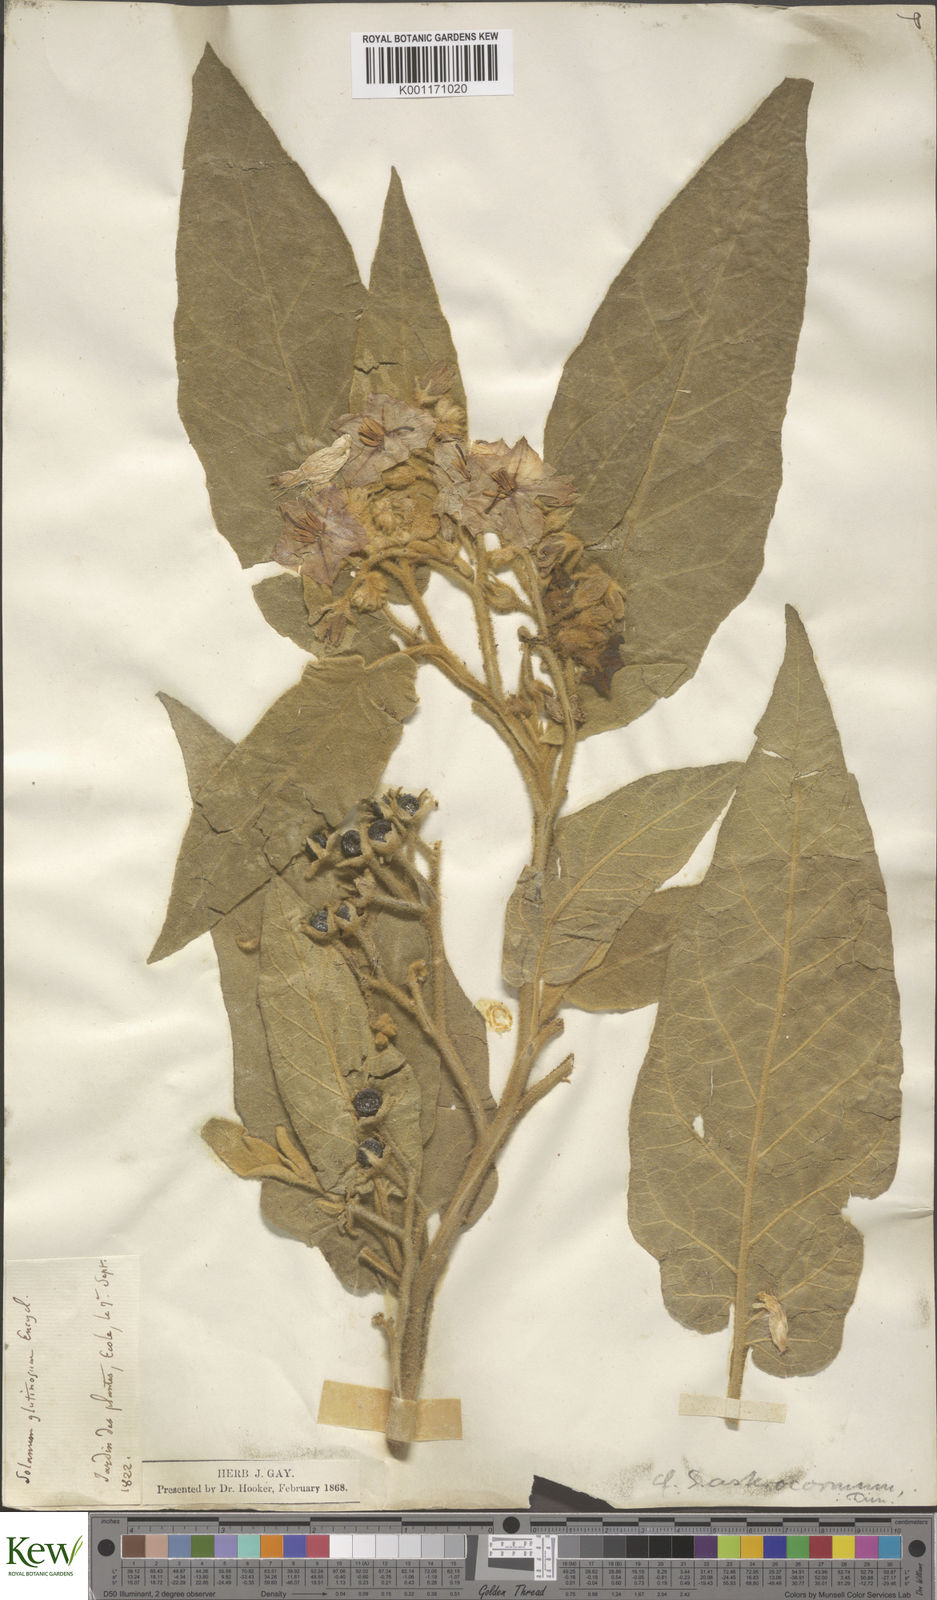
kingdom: Plantae
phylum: Tracheophyta
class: Magnoliopsida
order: Solanales
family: Solanaceae
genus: Solanum
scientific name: Solanum
